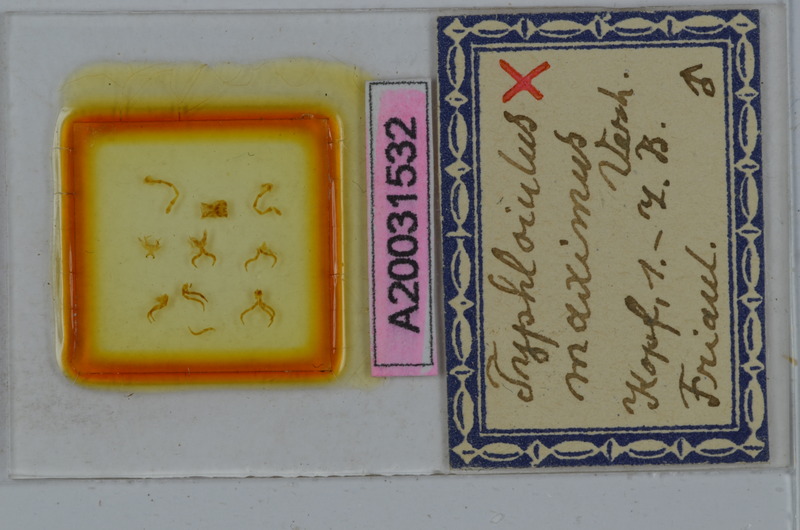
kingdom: Animalia
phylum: Arthropoda
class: Diplopoda
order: Julida
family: Julidae
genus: Stygiiulus
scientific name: Stygiiulus maximus
